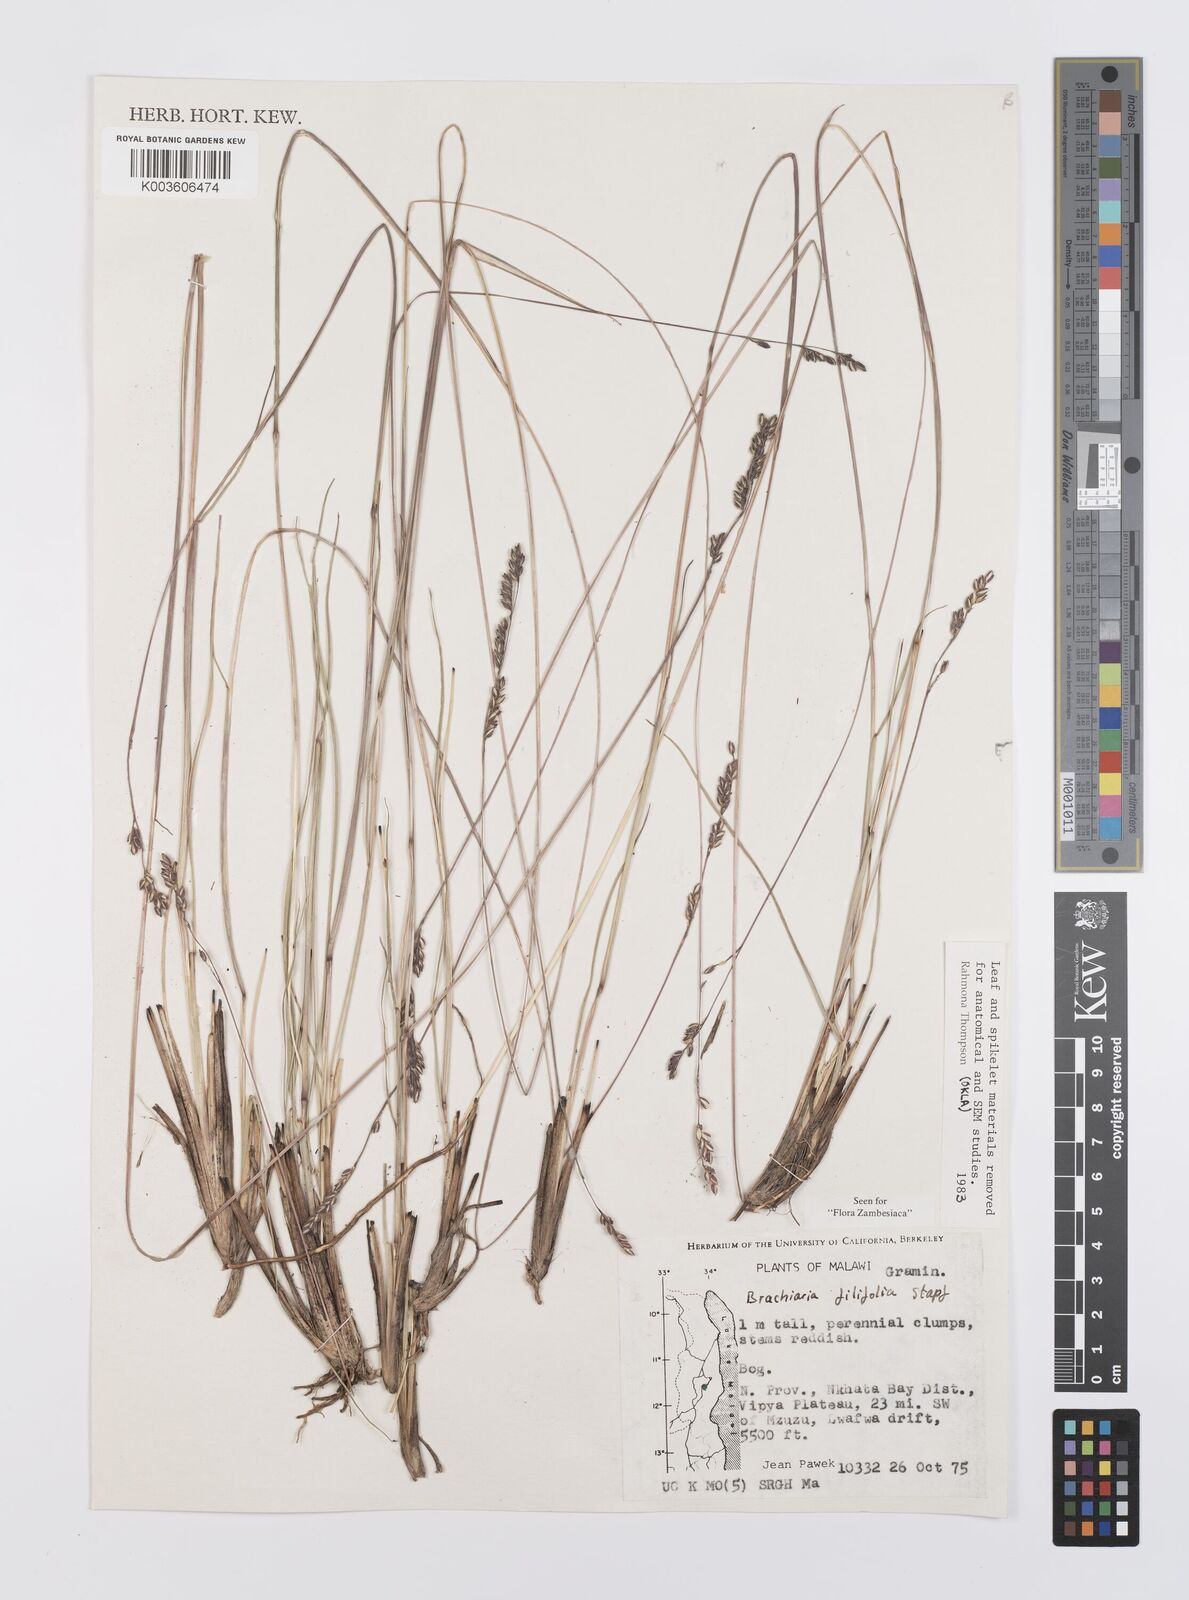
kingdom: Plantae
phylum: Tracheophyta
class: Liliopsida
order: Poales
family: Poaceae
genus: Urochloa
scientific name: Urochloa subulifolia
